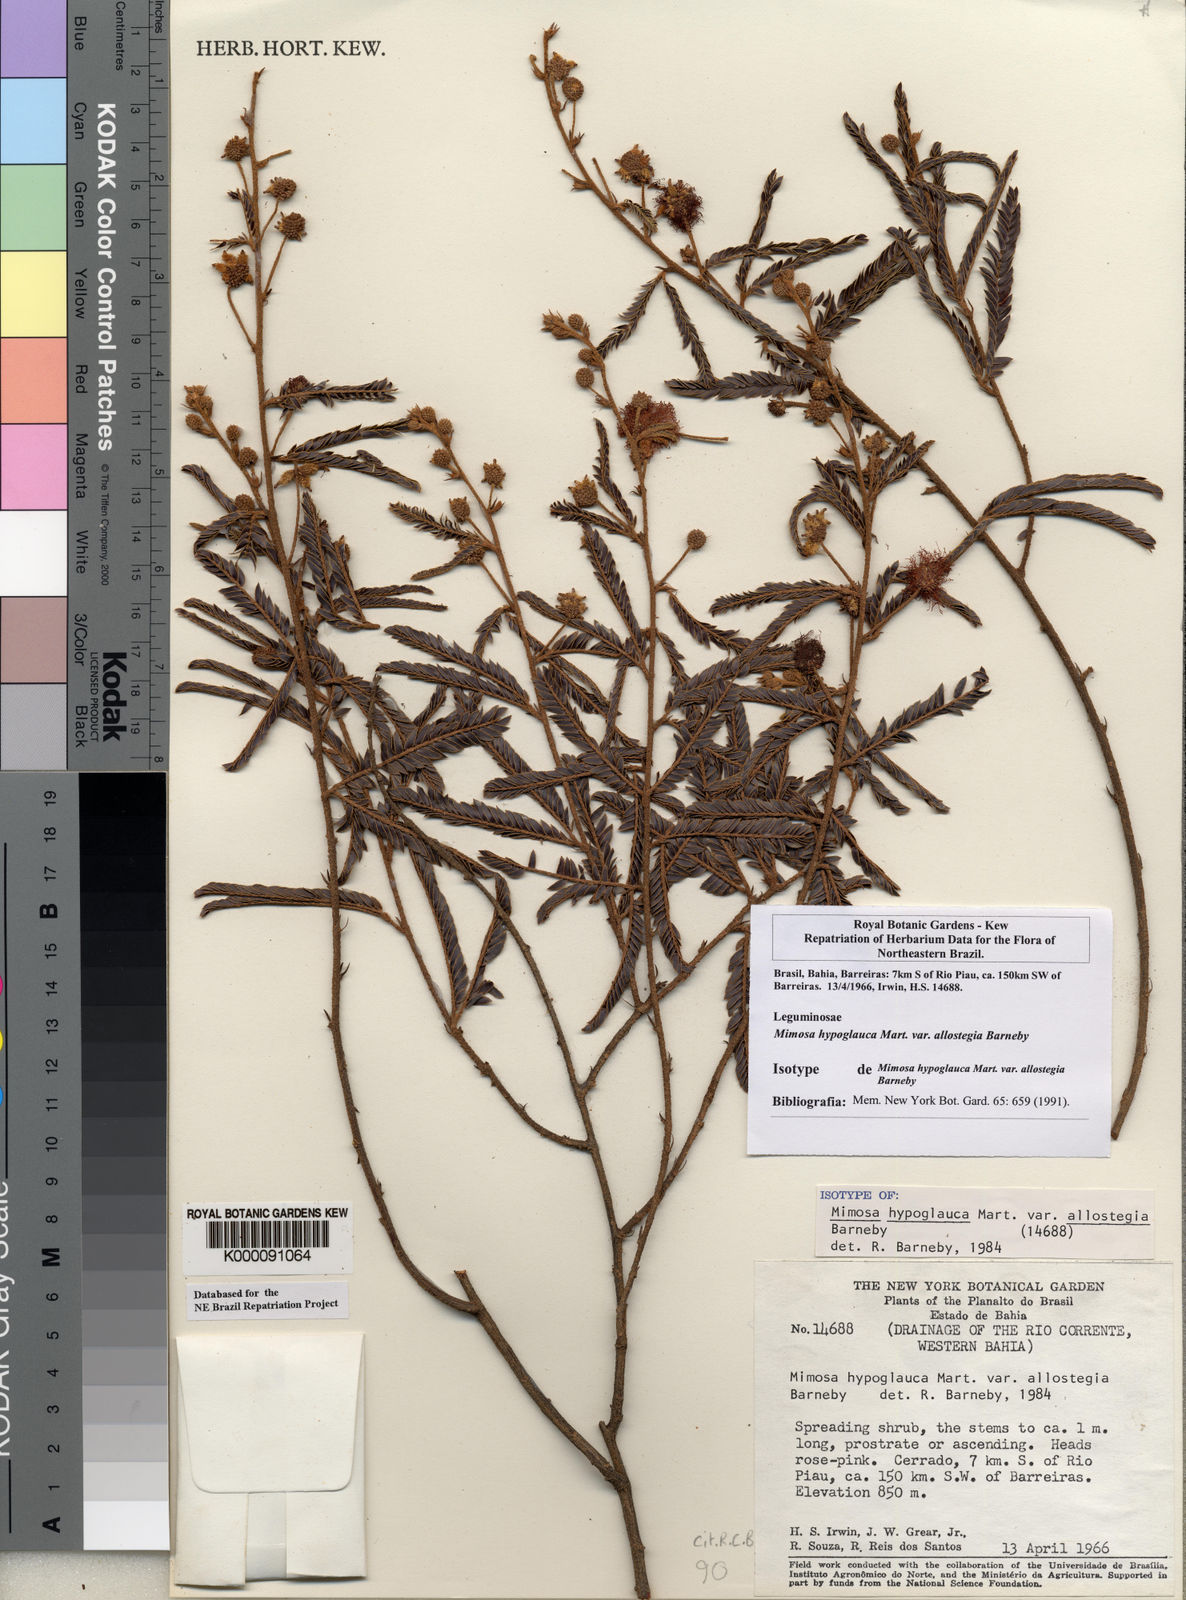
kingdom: Plantae
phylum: Tracheophyta
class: Magnoliopsida
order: Fabales
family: Fabaceae
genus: Mimosa
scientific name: Mimosa hypoglauca
